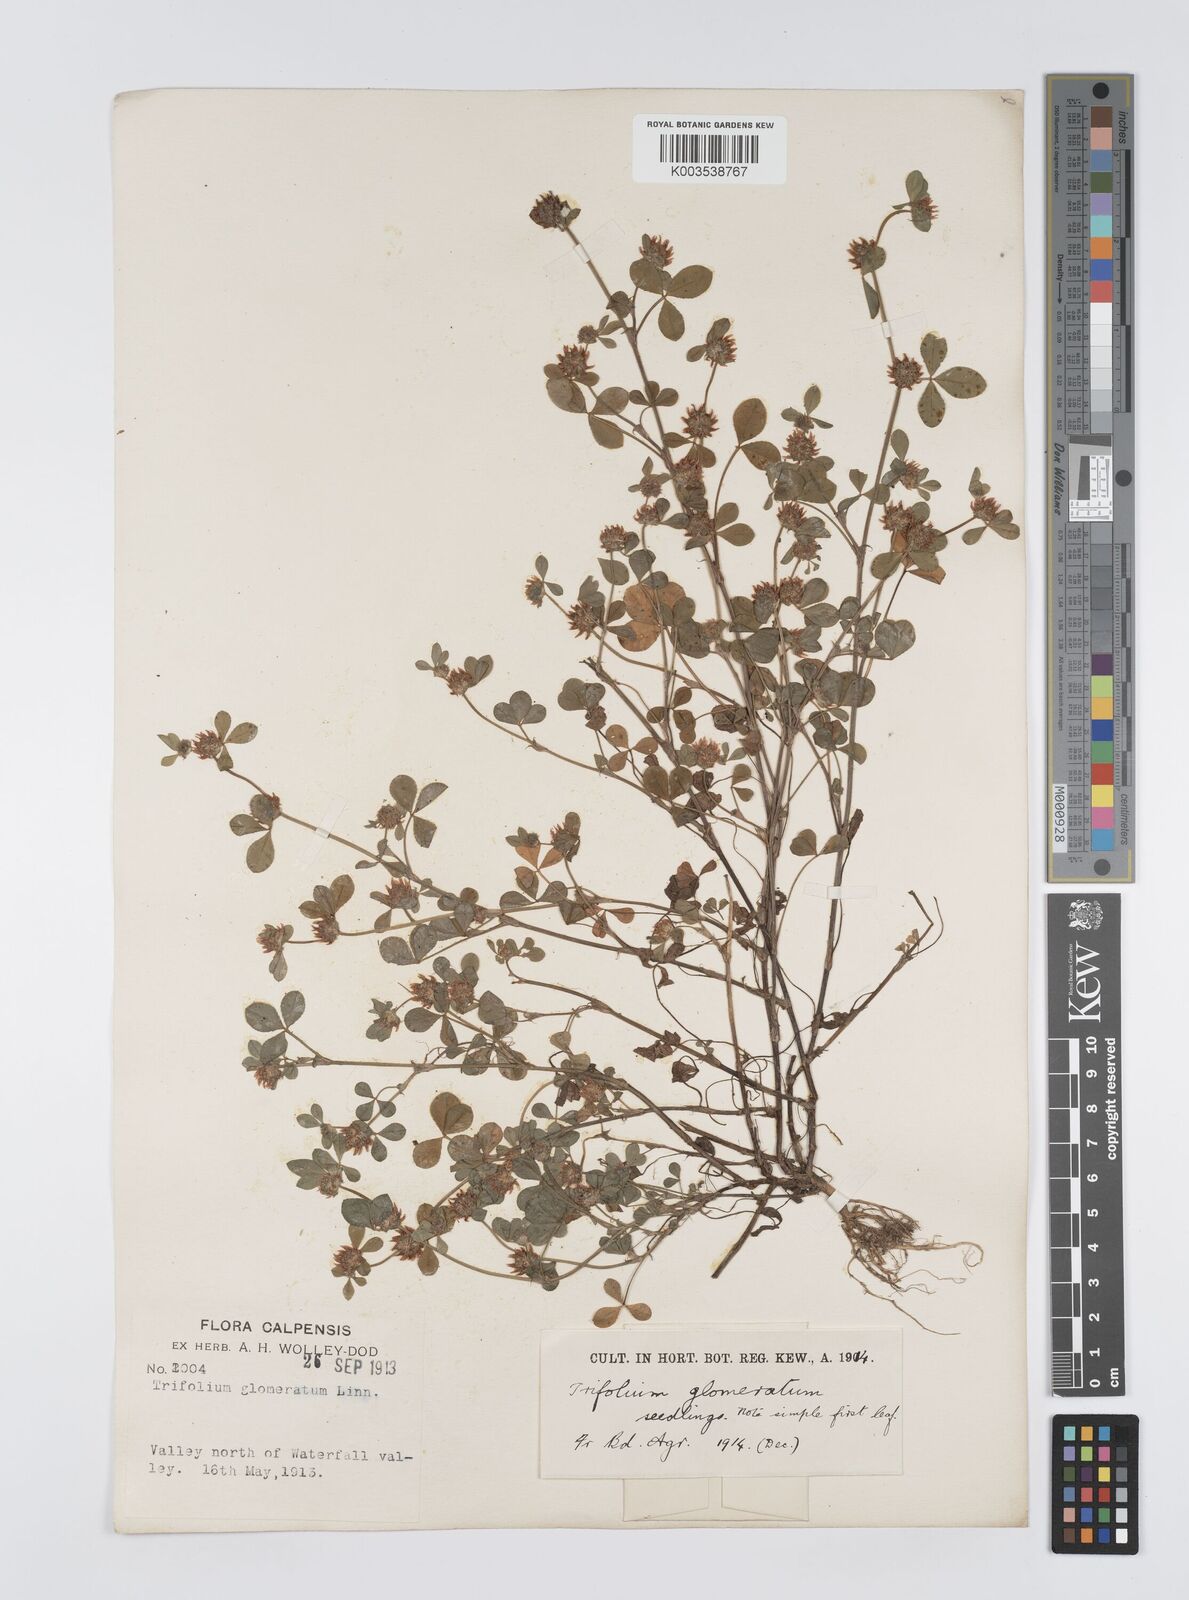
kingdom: Plantae
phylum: Tracheophyta
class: Magnoliopsida
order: Fabales
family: Fabaceae
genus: Trifolium
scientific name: Trifolium glomeratum
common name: Clustered clover
